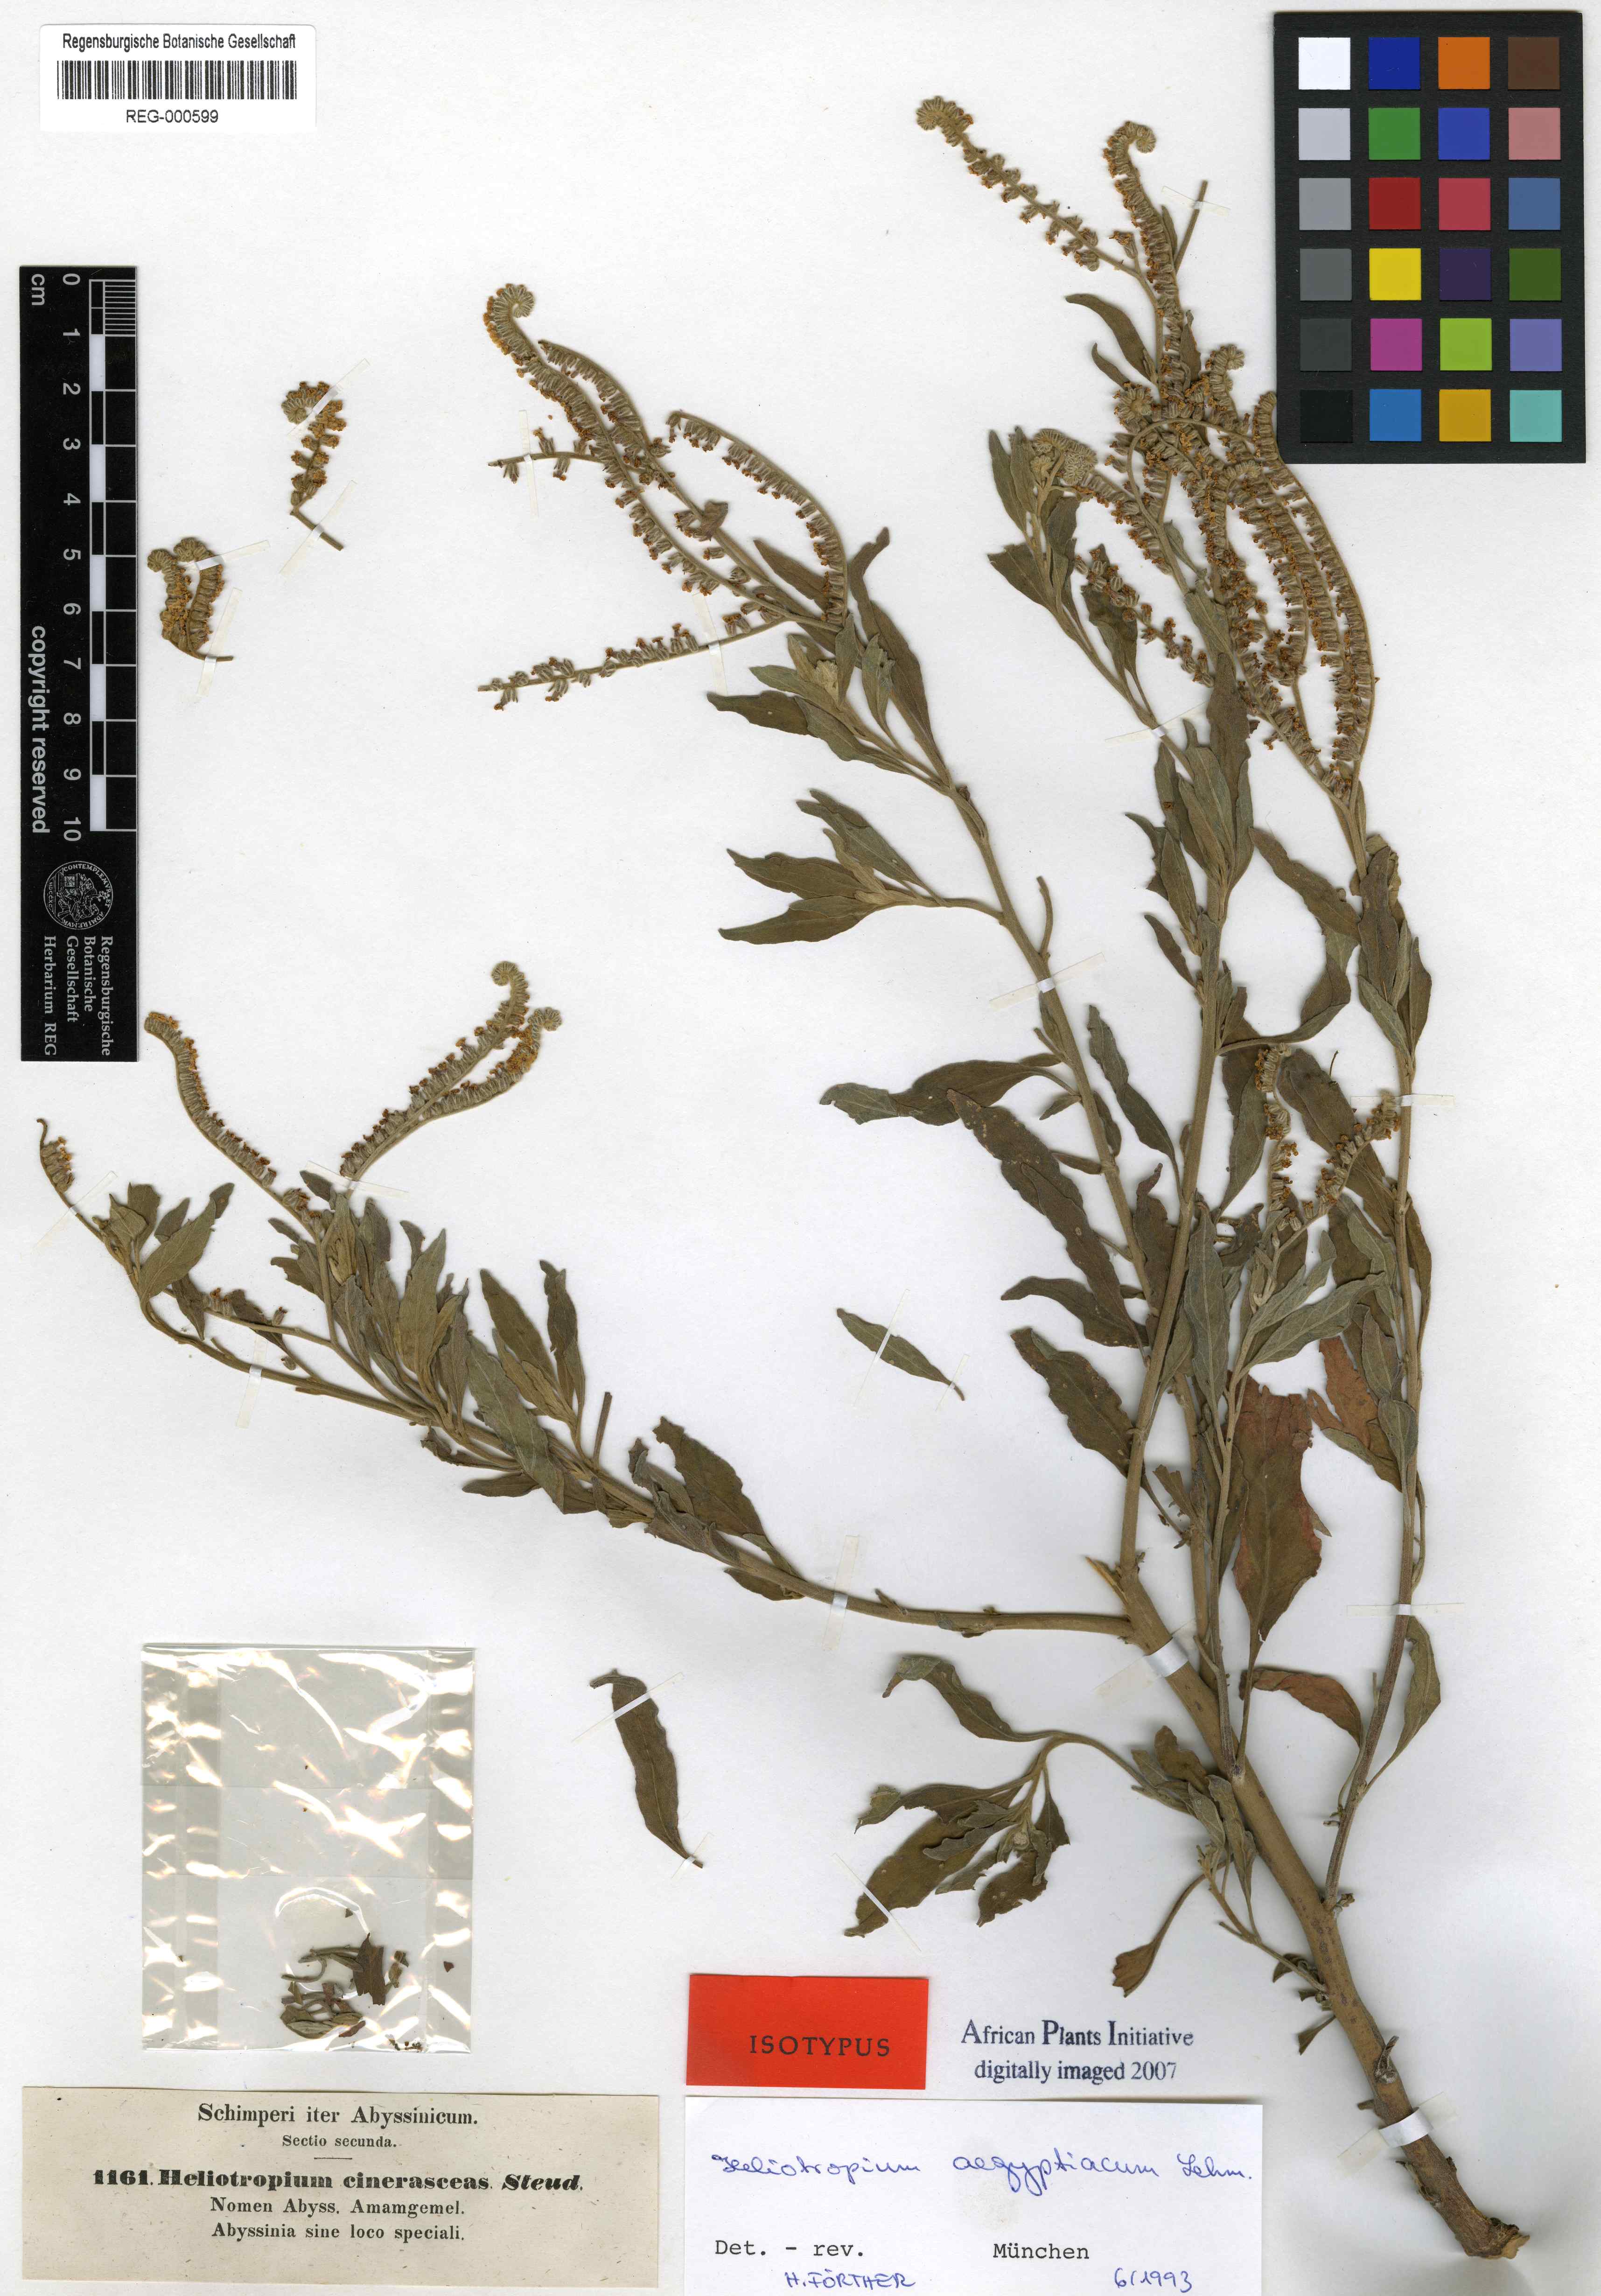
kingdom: Plantae
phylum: Tracheophyta
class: Magnoliopsida
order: Boraginales
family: Heliotropiaceae
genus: Heliotropium
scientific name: Heliotropium aegyptiacum
